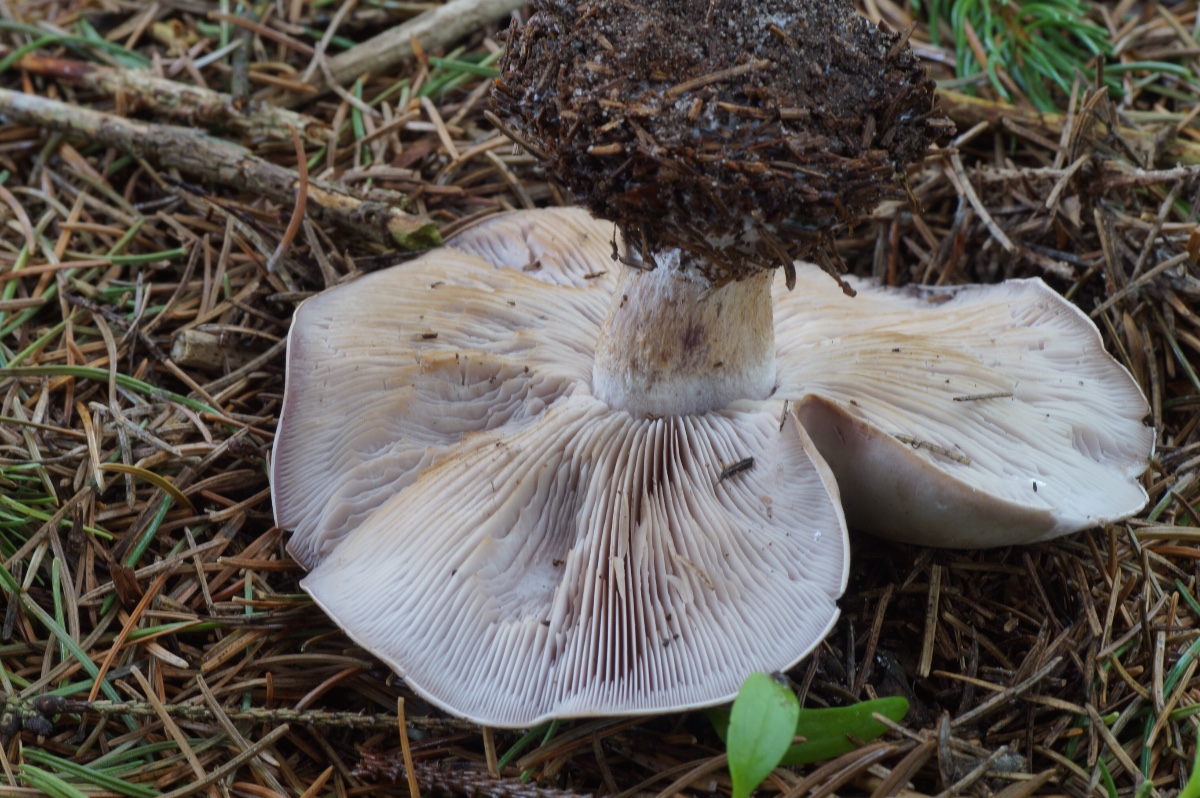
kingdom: Fungi
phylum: Basidiomycota
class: Agaricomycetes
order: Agaricales
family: Tricholomataceae
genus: Lepista
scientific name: Lepista nuda
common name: violet hekseringshat
